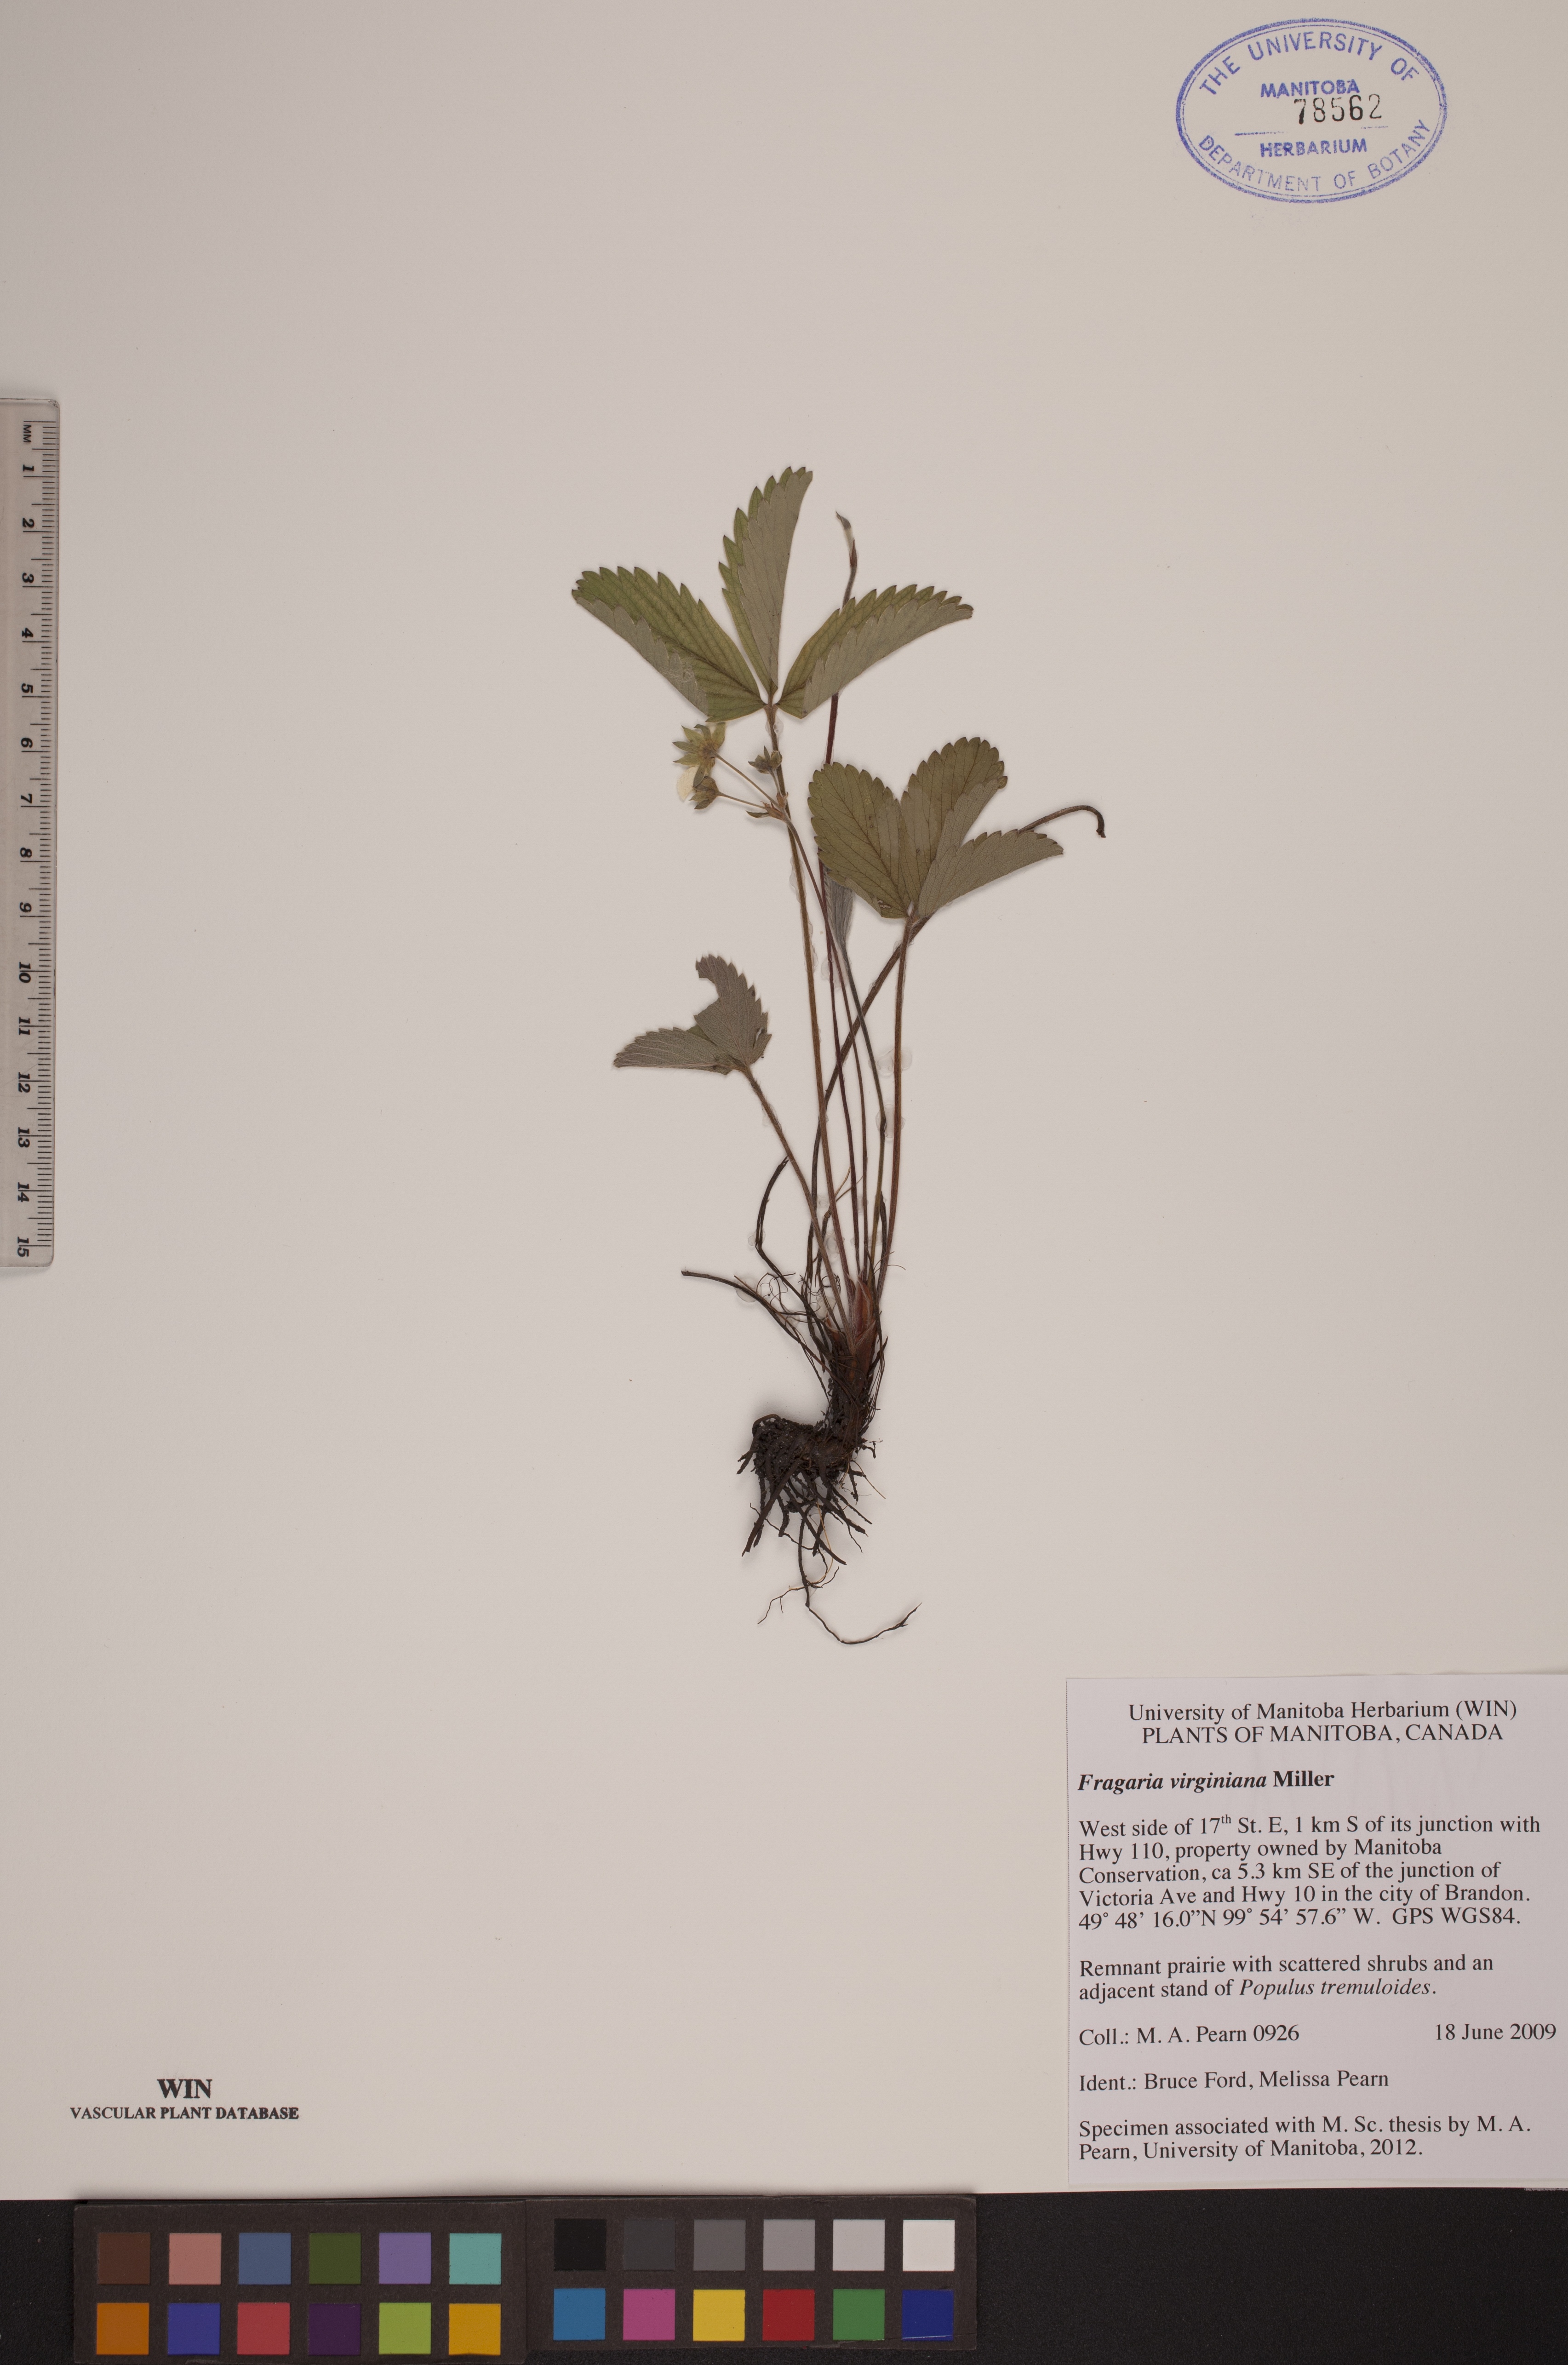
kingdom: Plantae
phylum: Tracheophyta
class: Magnoliopsida
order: Rosales
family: Rosaceae
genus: Fragaria
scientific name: Fragaria virginiana
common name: Thickleaved wild strawberry
